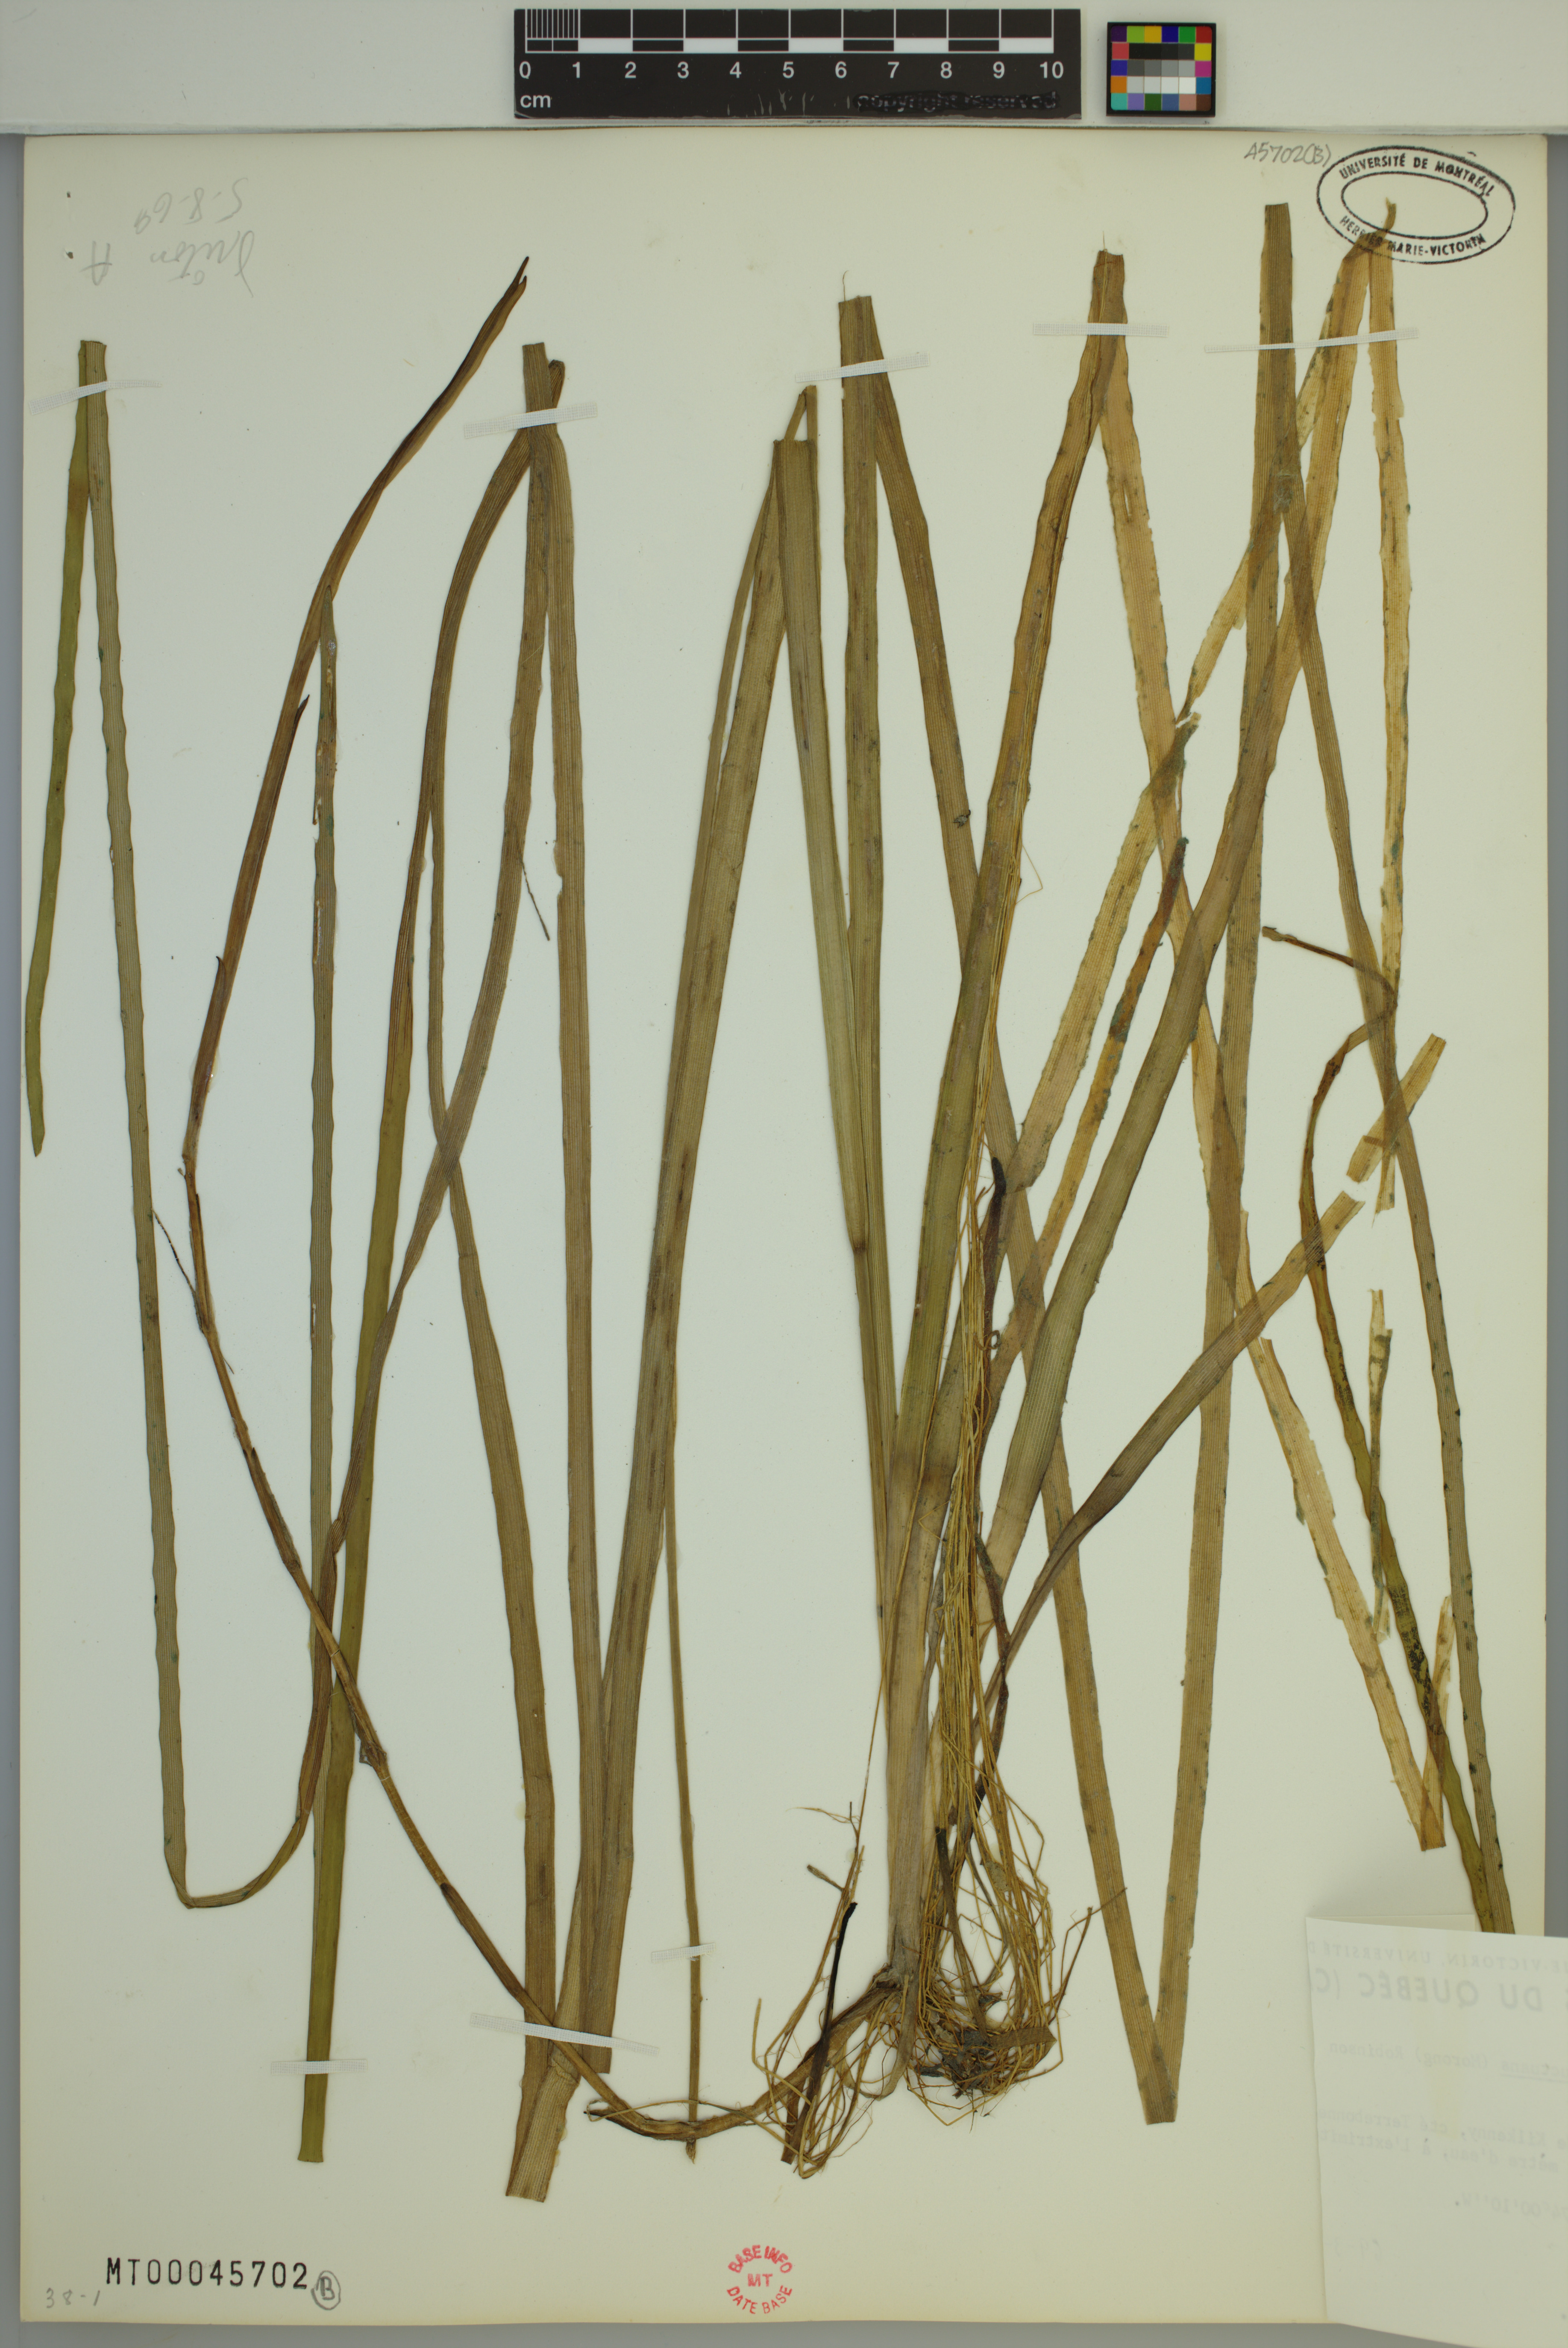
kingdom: Plantae
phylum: Tracheophyta
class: Liliopsida
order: Poales
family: Typhaceae
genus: Sparganium
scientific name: Sparganium fluctuans
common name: Floating burreed
